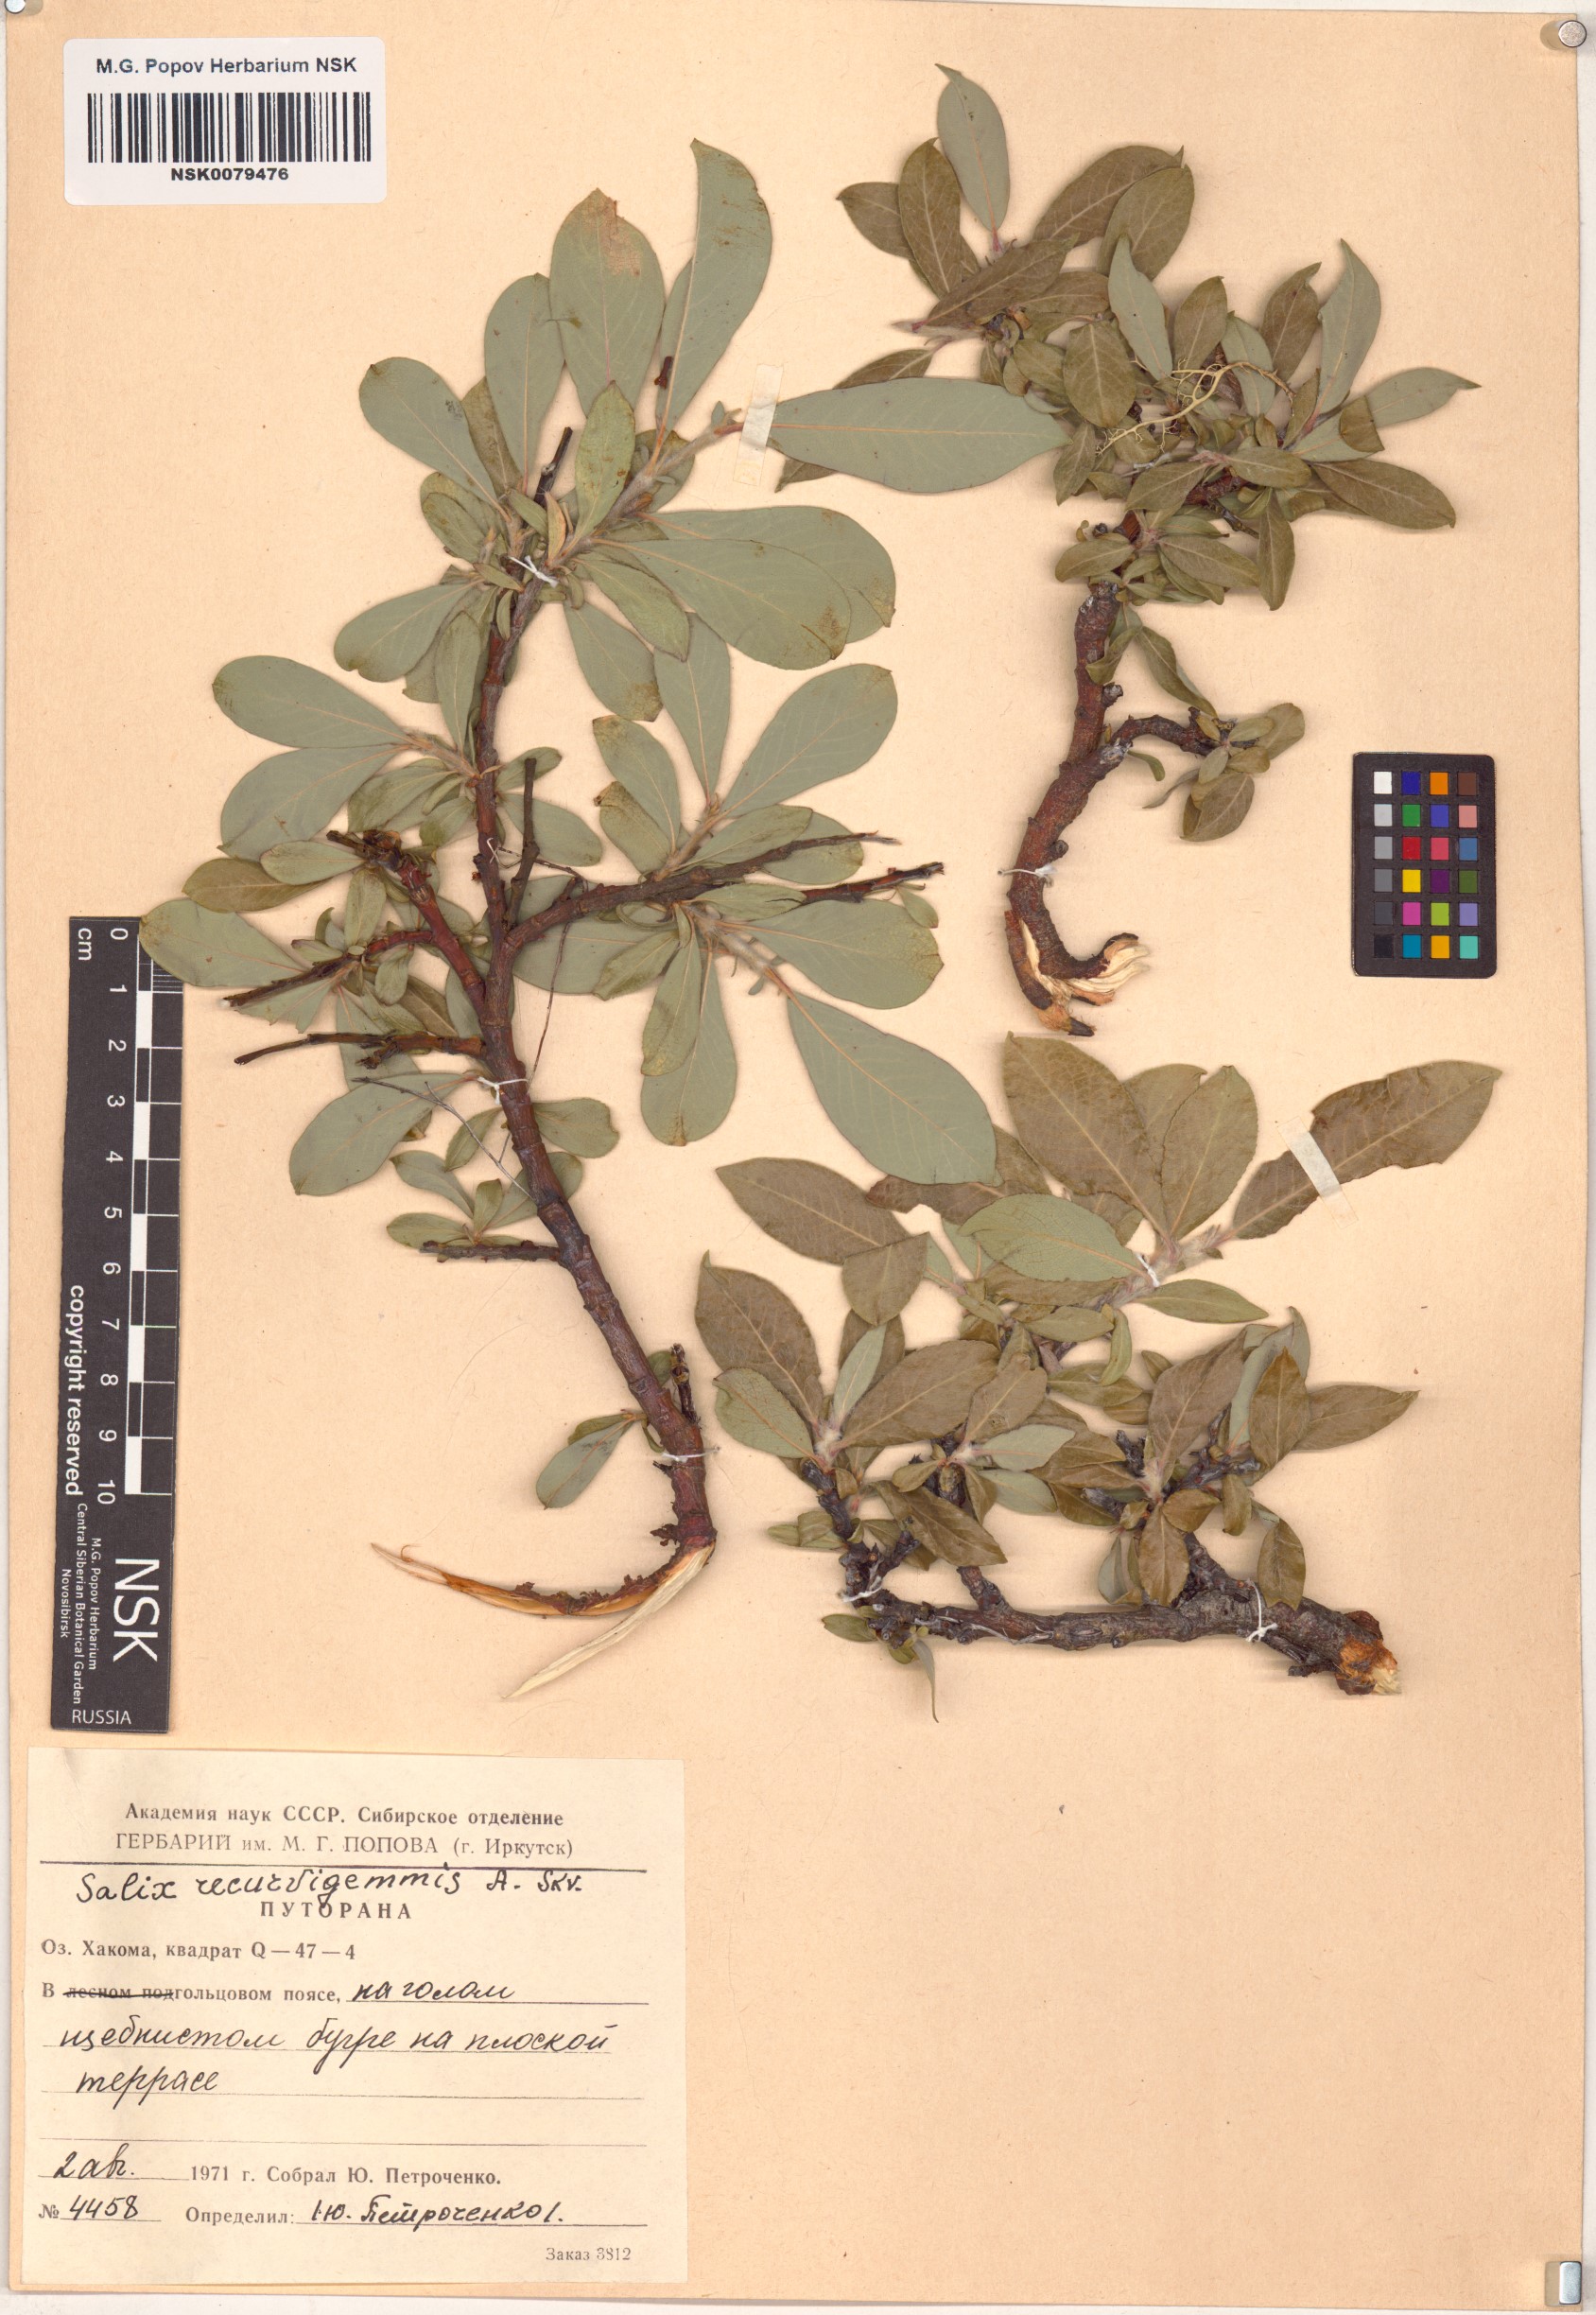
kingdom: Plantae
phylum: Tracheophyta
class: Magnoliopsida
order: Malpighiales
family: Salicaceae
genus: Salix
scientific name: Salix recurvigemmata
